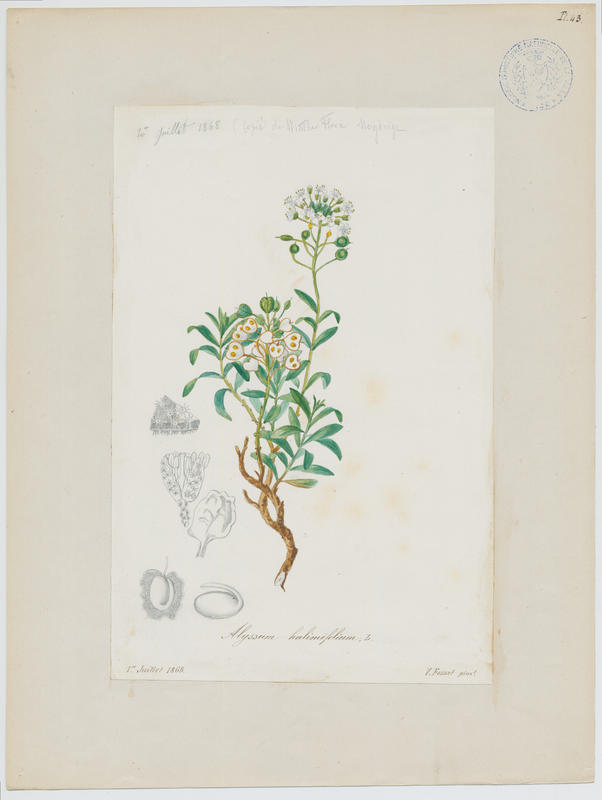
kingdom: Plantae
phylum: Tracheophyta
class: Magnoliopsida
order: Brassicales
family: Brassicaceae
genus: Hormathophylla
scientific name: Hormathophylla ligustica
